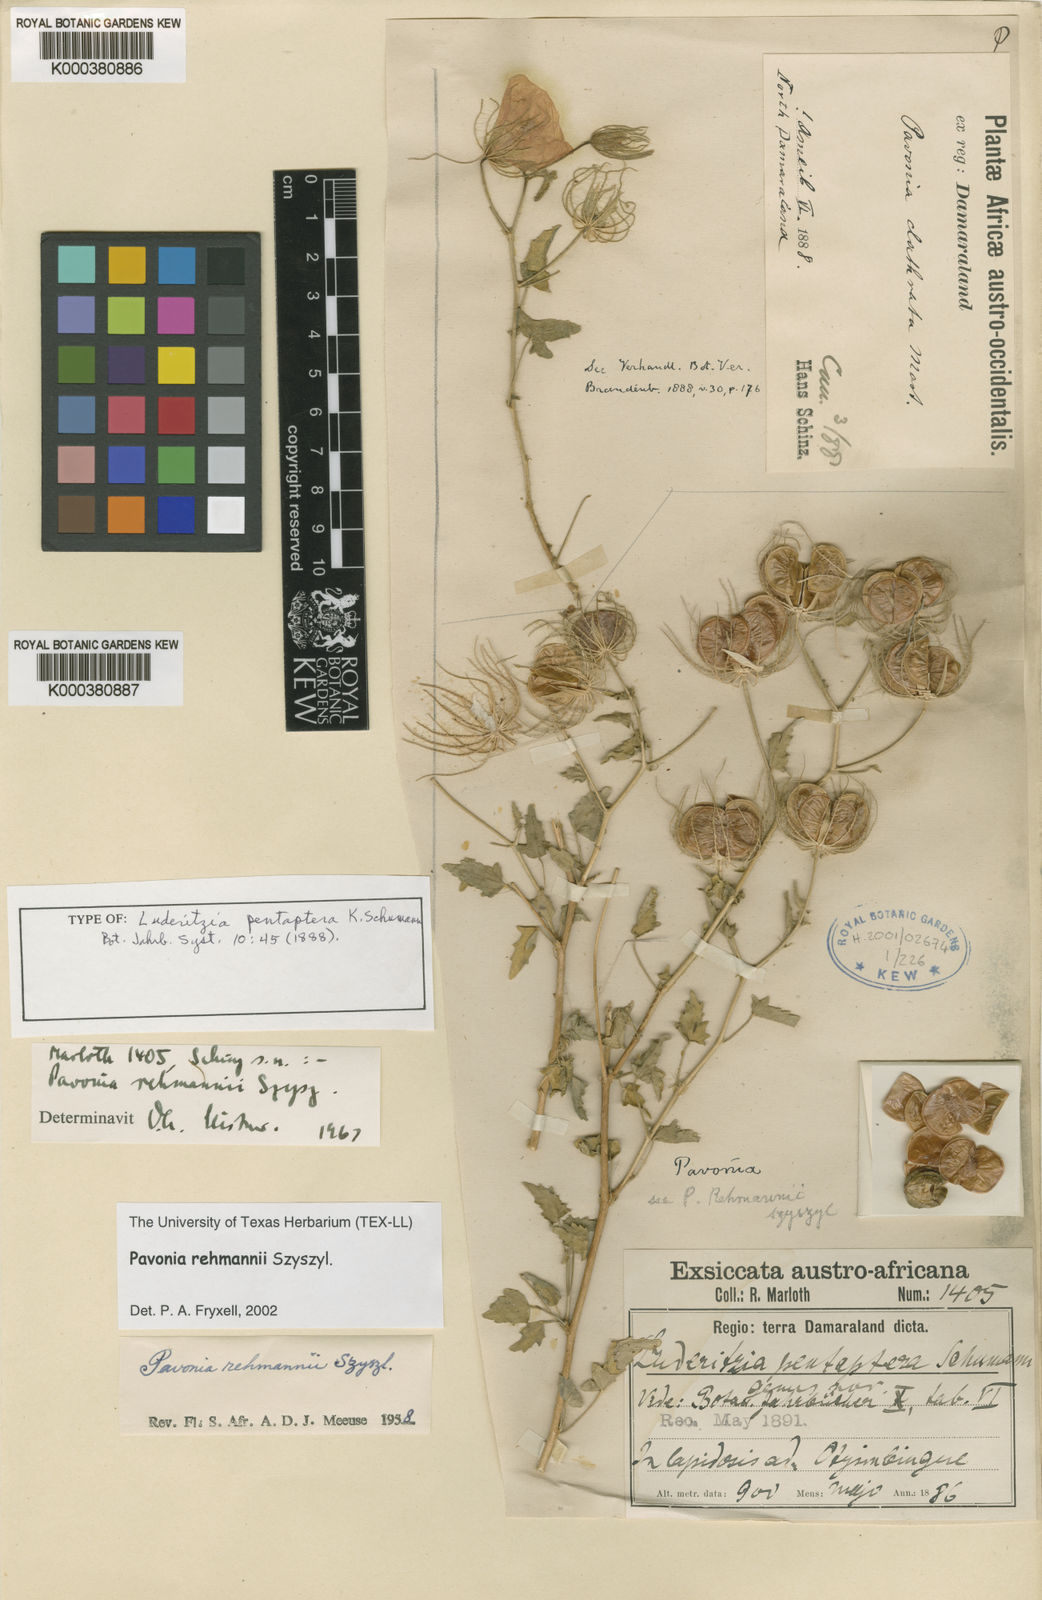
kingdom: Plantae
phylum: Tracheophyta
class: Magnoliopsida
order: Malvales
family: Malvaceae
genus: Pavonia
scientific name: Pavonia rehmannii
